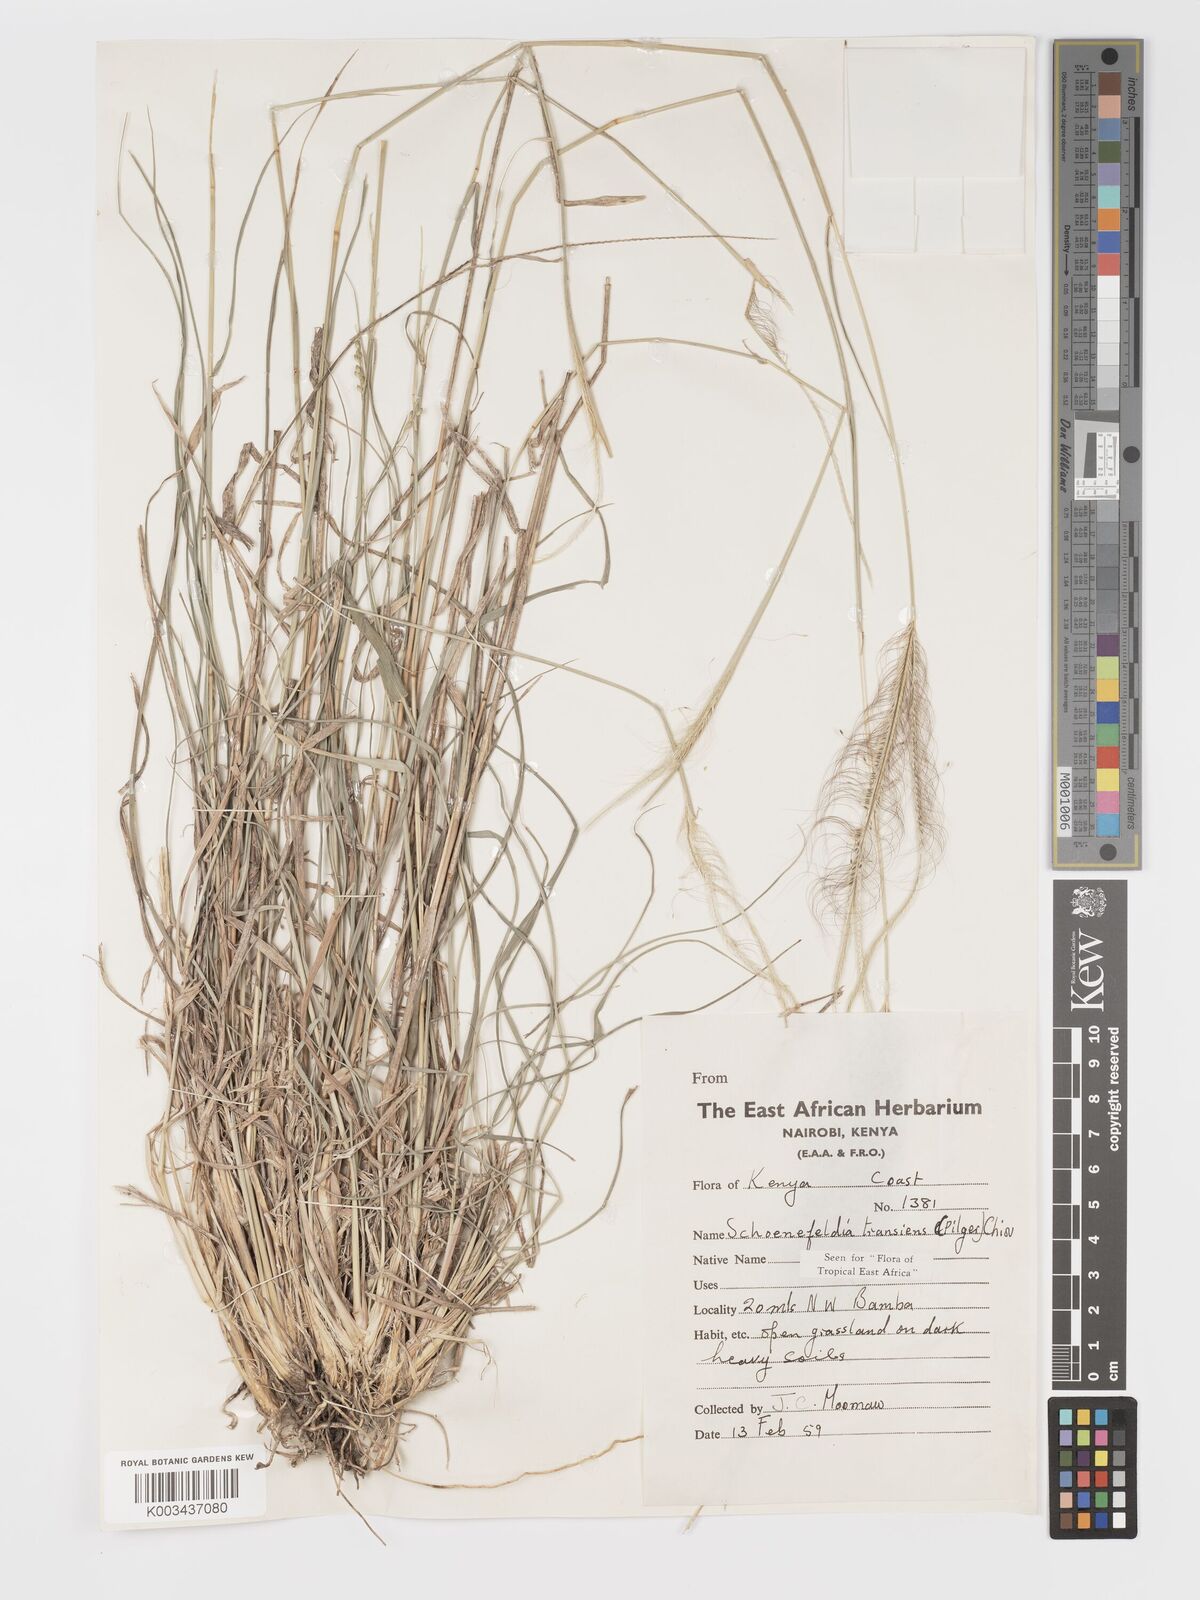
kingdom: Plantae
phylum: Tracheophyta
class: Liliopsida
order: Poales
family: Poaceae
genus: Schoenefeldia
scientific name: Schoenefeldia transiens
